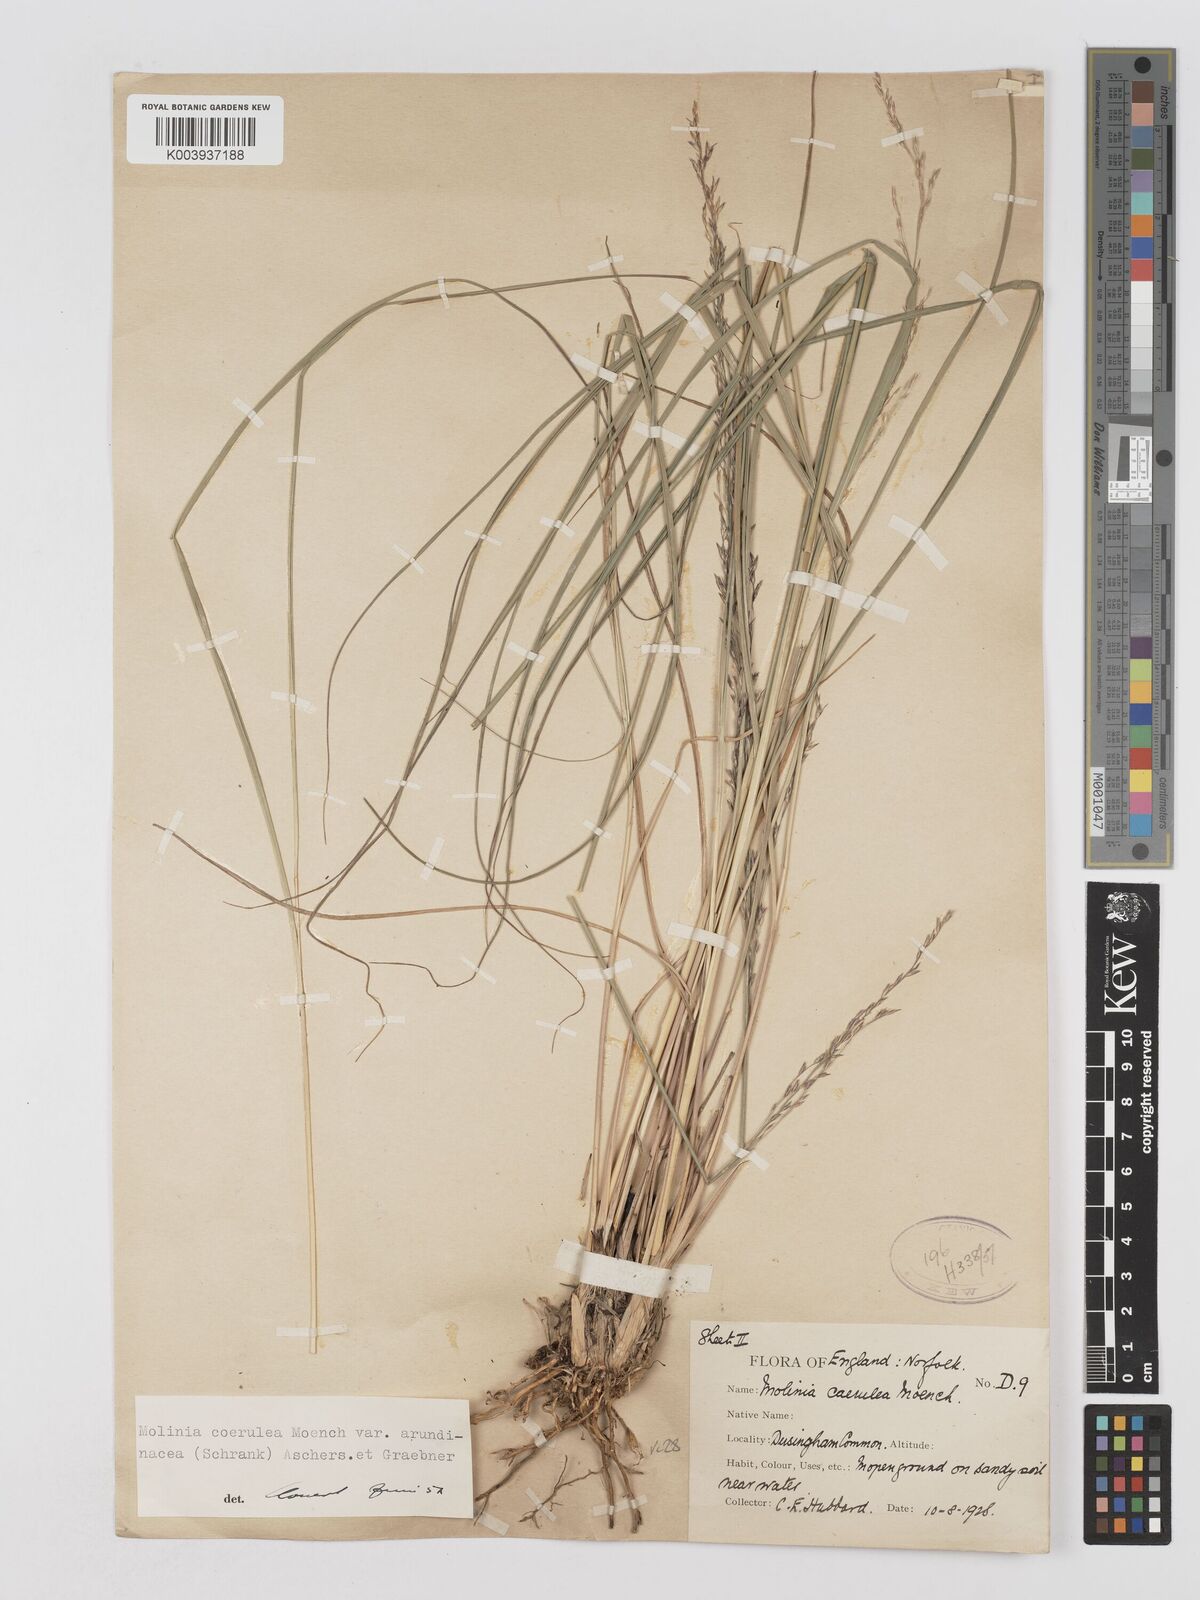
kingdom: Plantae
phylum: Tracheophyta
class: Liliopsida
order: Poales
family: Poaceae
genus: Molinia
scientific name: Molinia caerulea
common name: Purple moor-grass
